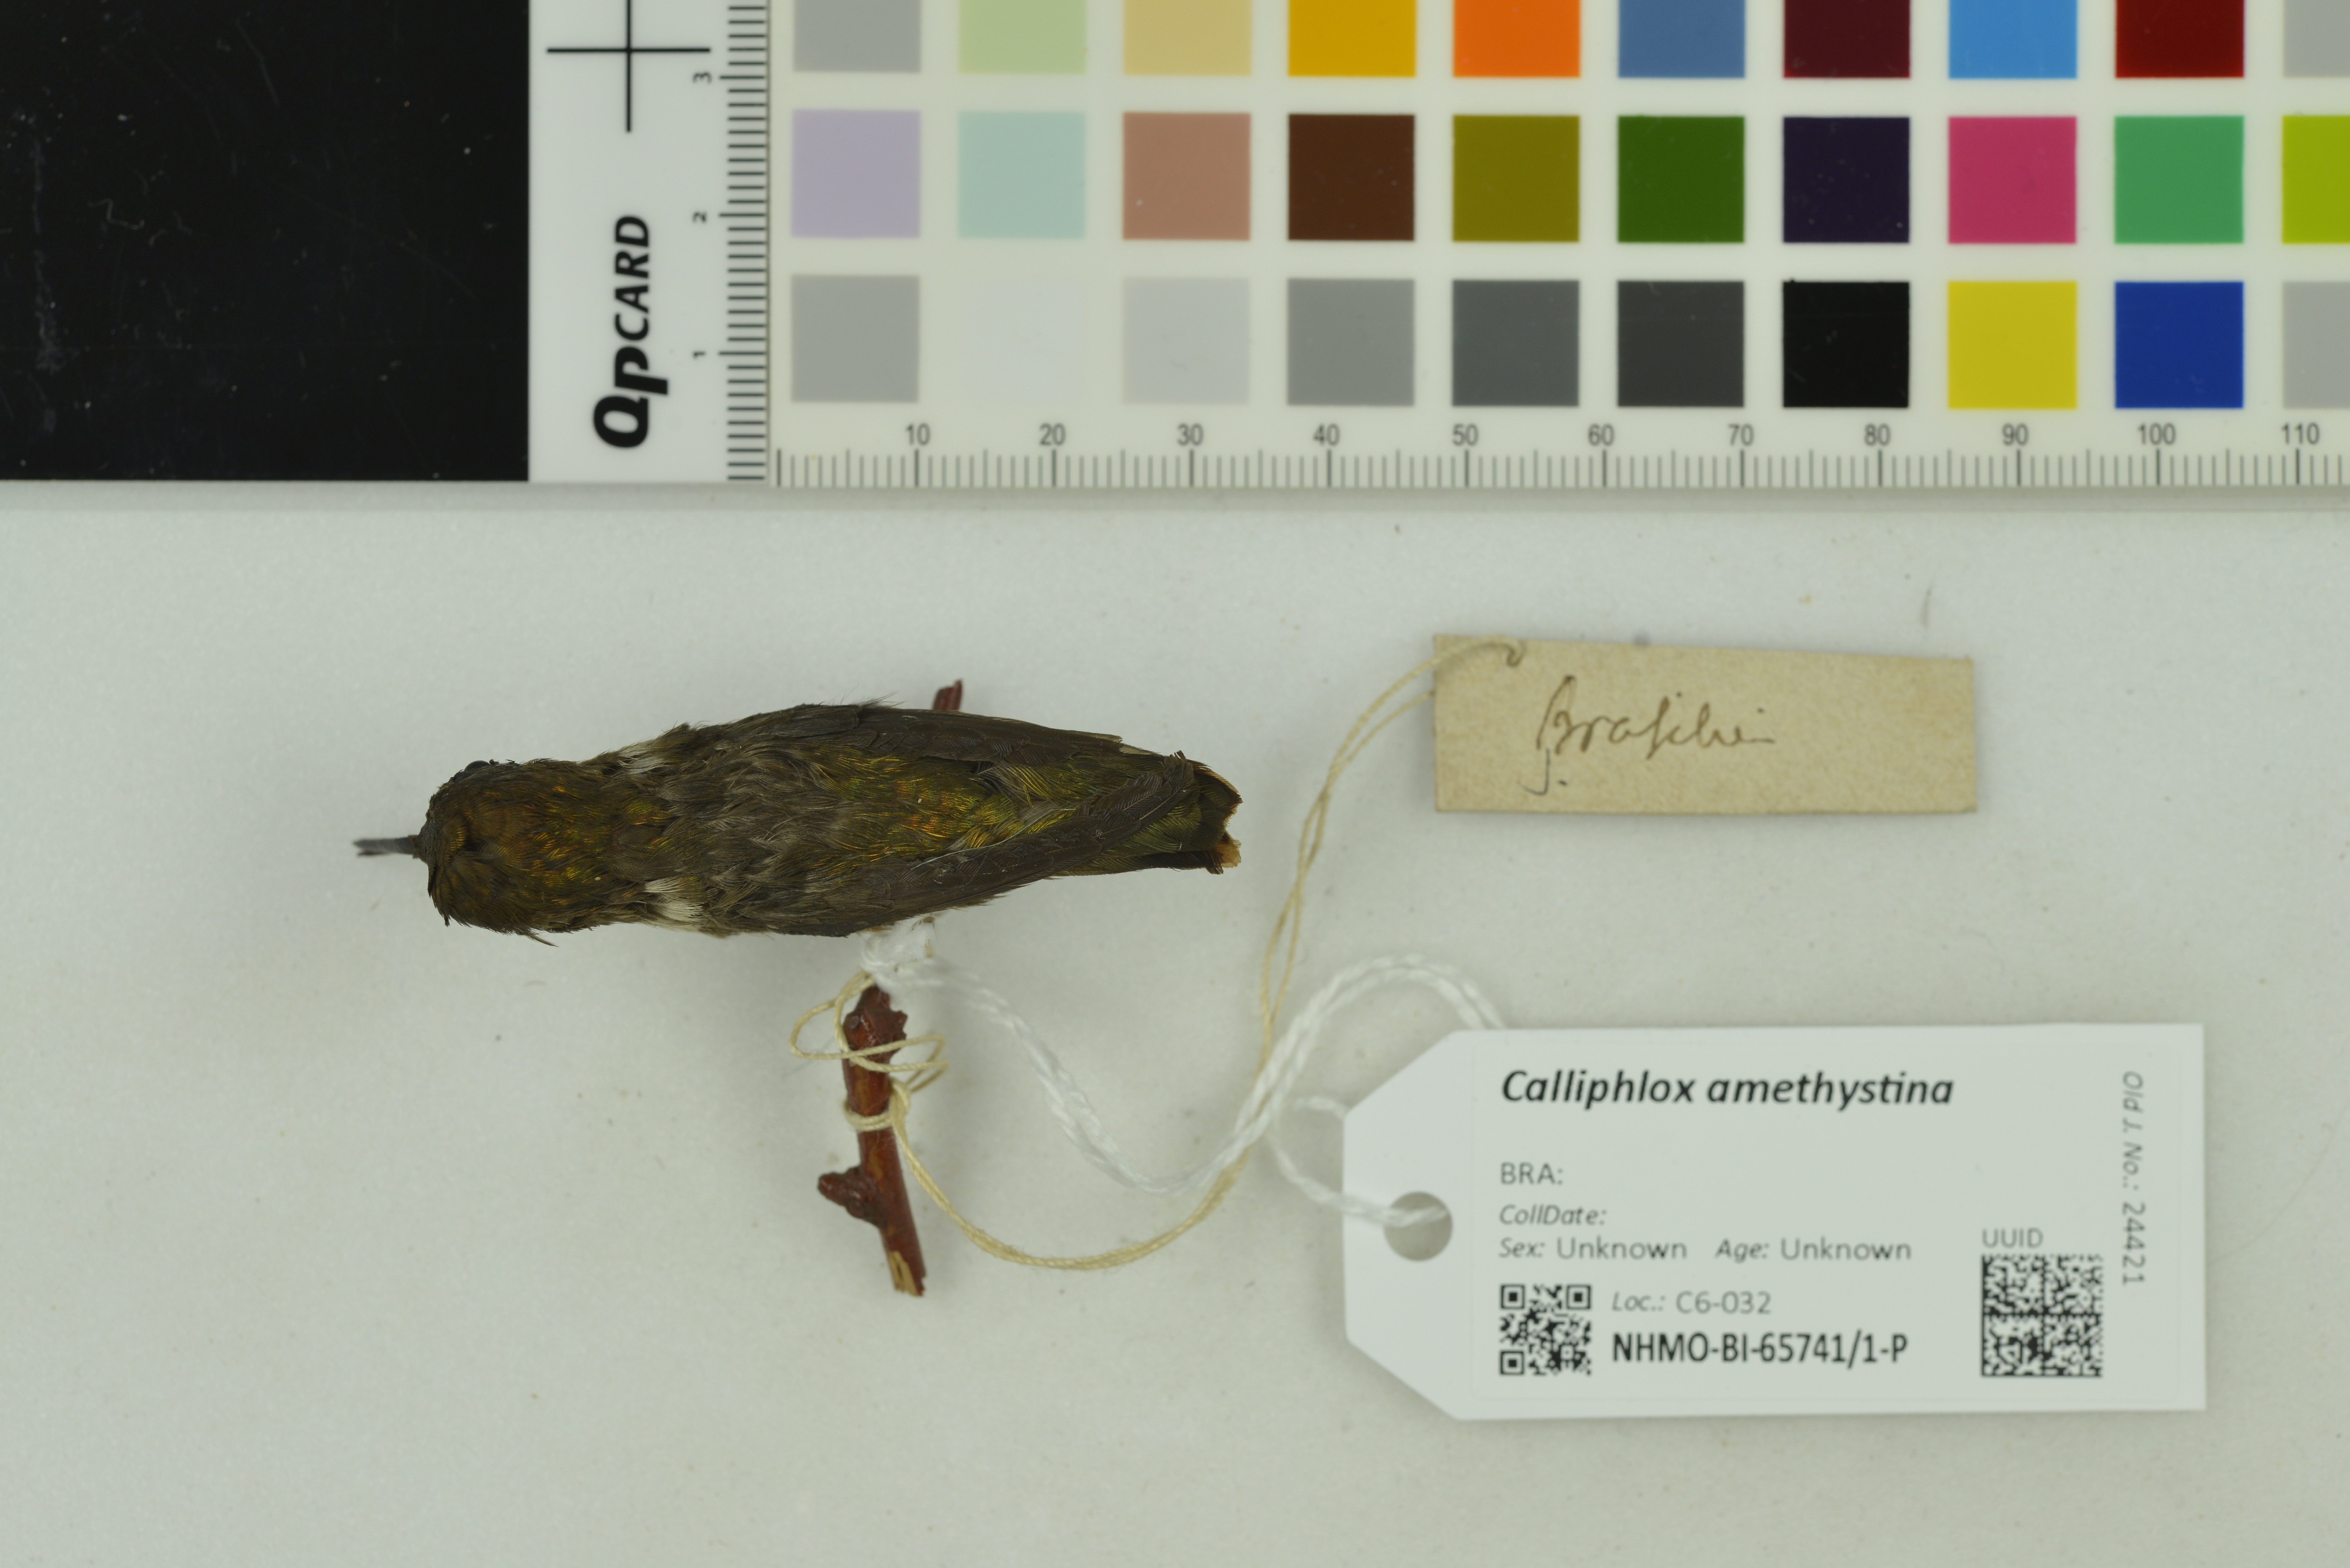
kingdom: Animalia
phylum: Chordata
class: Aves
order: Apodiformes
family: Trochilidae
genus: Calliphlox
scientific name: Calliphlox amethystina
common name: Amethyst woodstar
